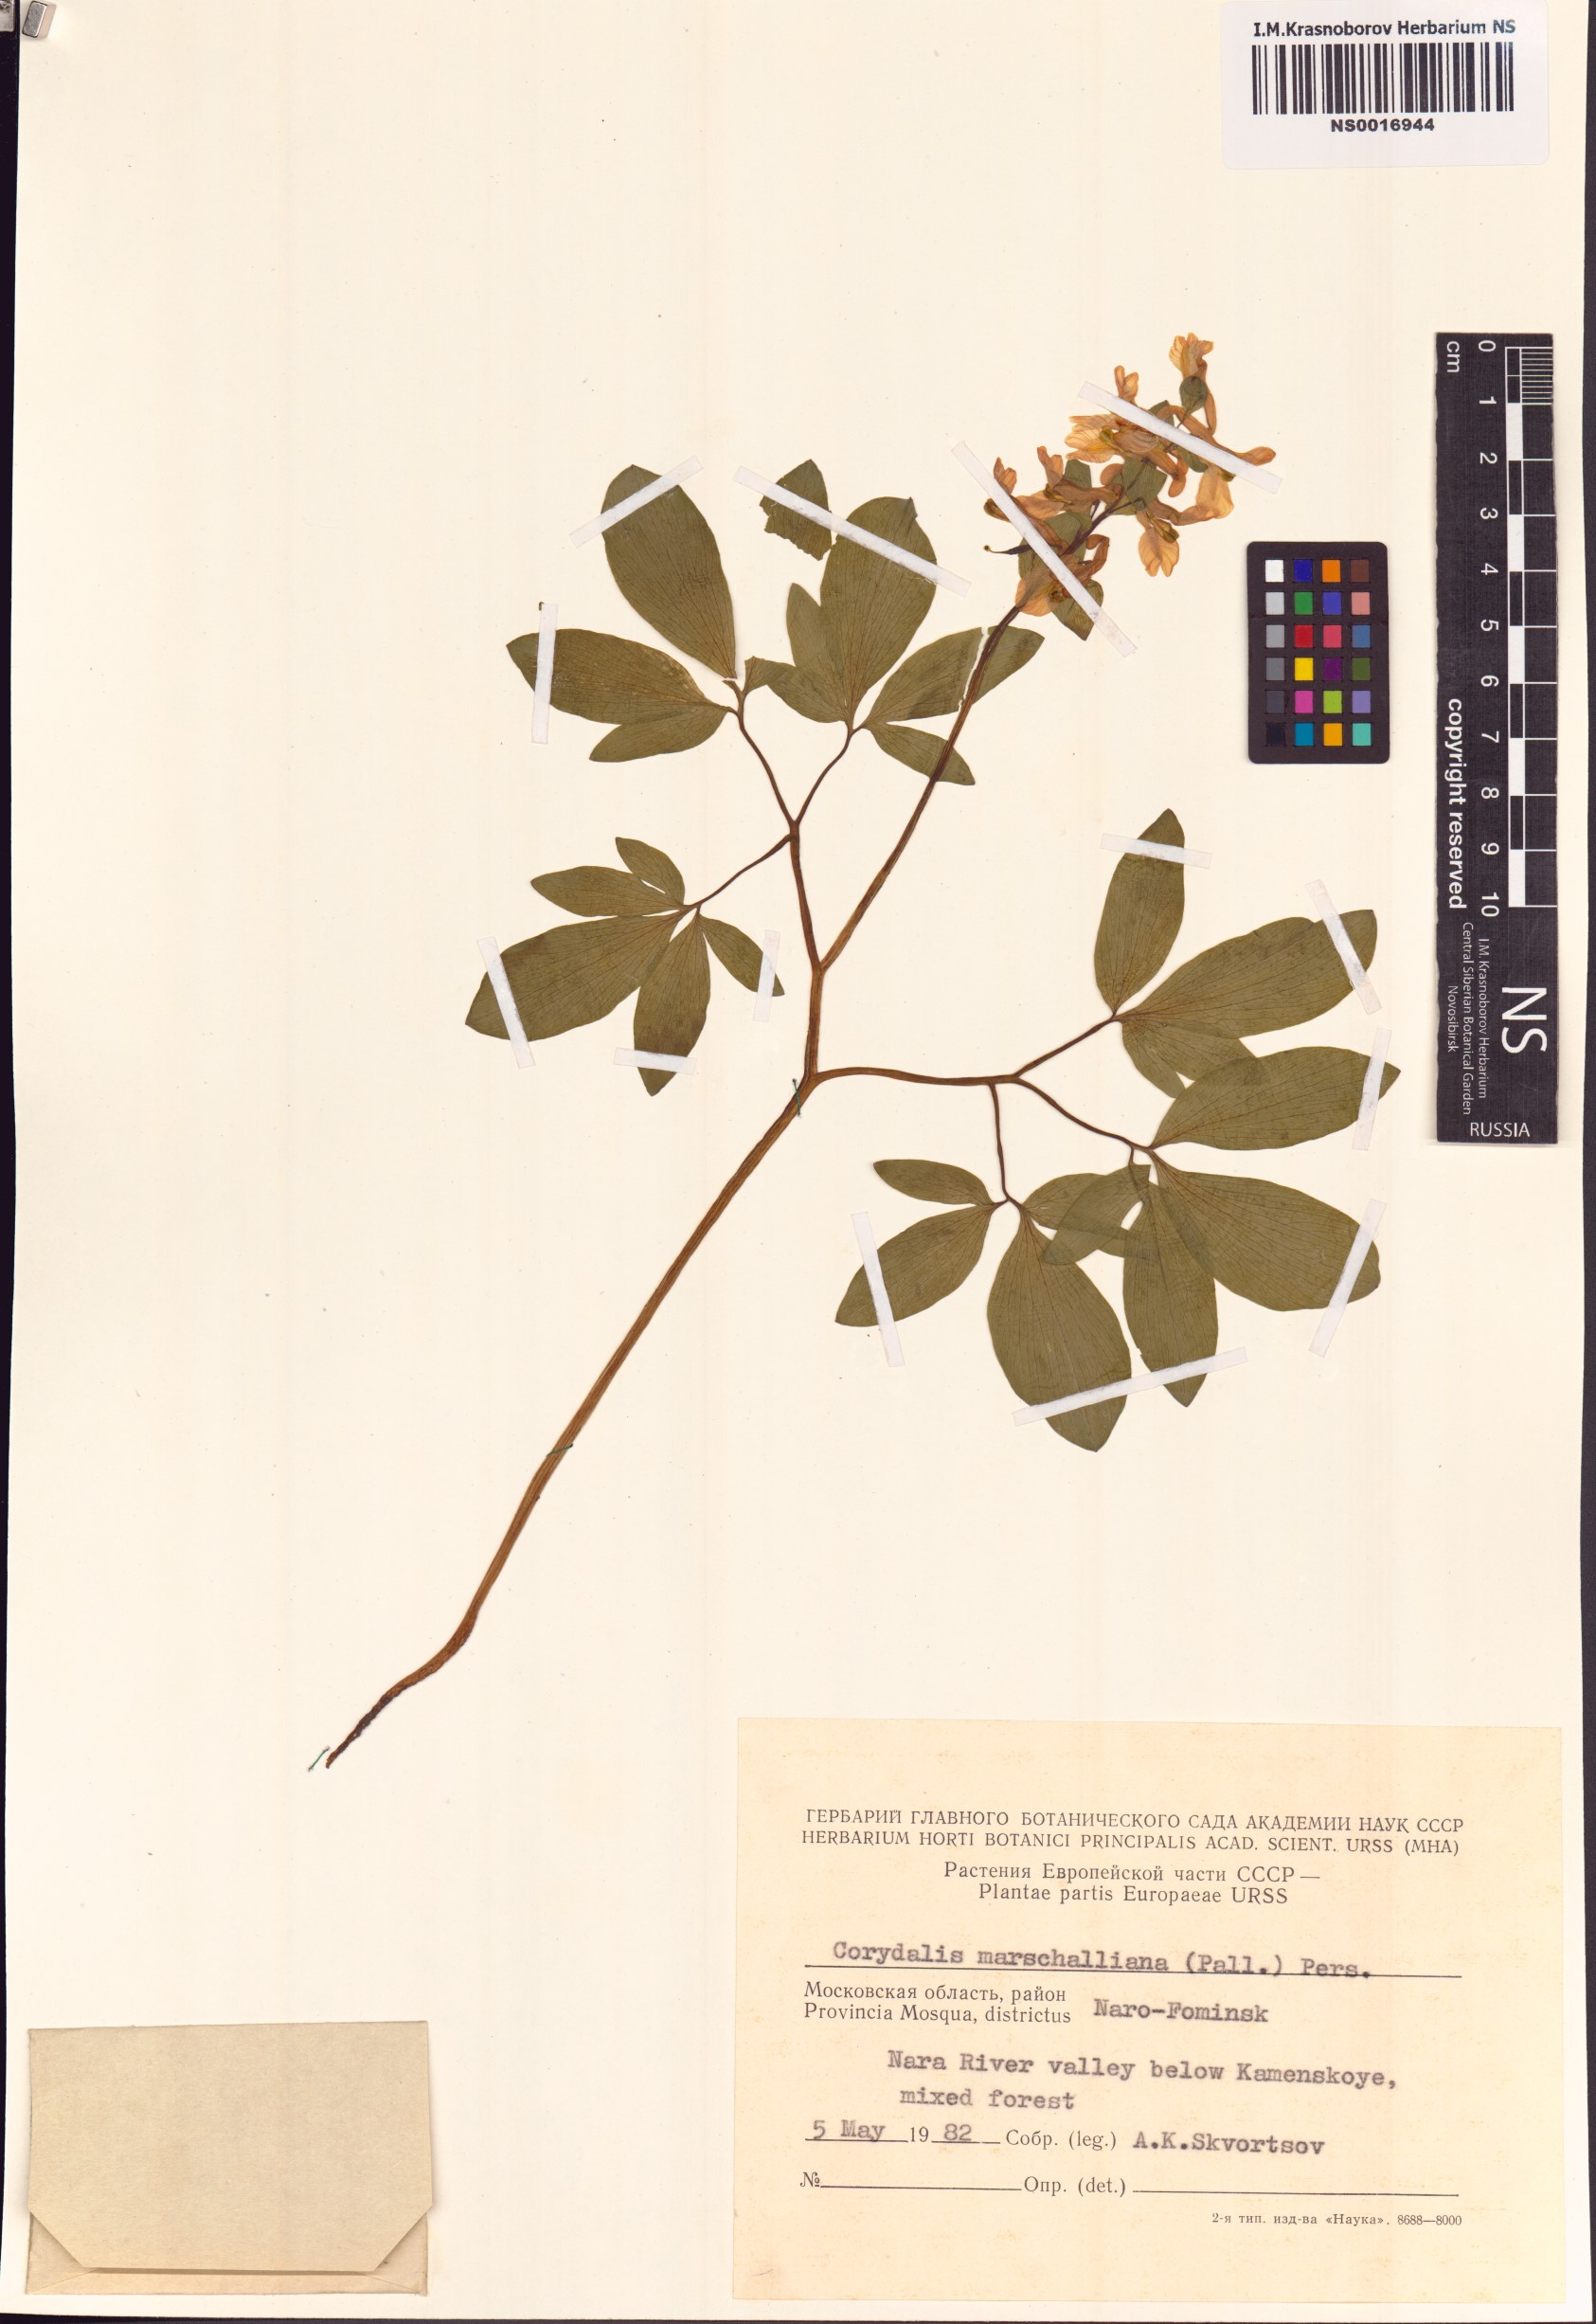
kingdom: Plantae
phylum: Tracheophyta
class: Magnoliopsida
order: Ranunculales
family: Papaveraceae
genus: Corydalis
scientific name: Corydalis cava
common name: Hollowroot
